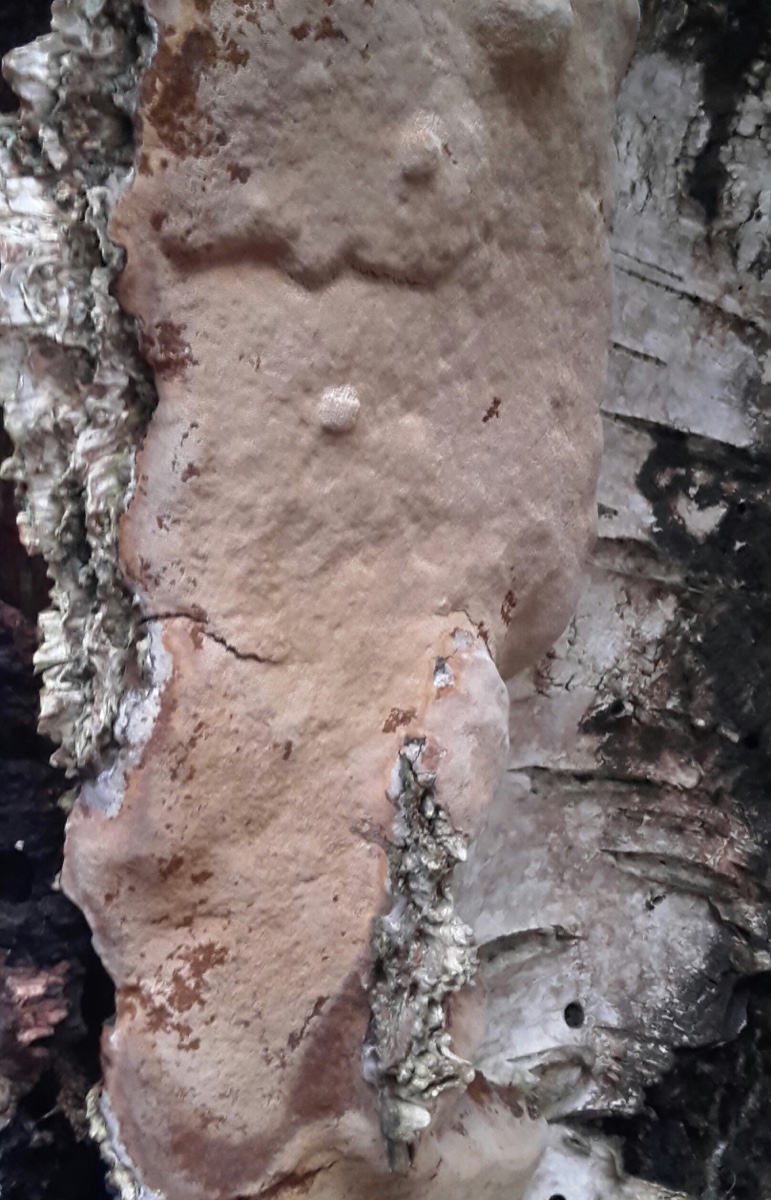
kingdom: Fungi
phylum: Basidiomycota
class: Agaricomycetes
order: Hymenochaetales
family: Hymenochaetaceae
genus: Phellinus
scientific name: Phellinus laevigatus
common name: glat ildporesvamp
